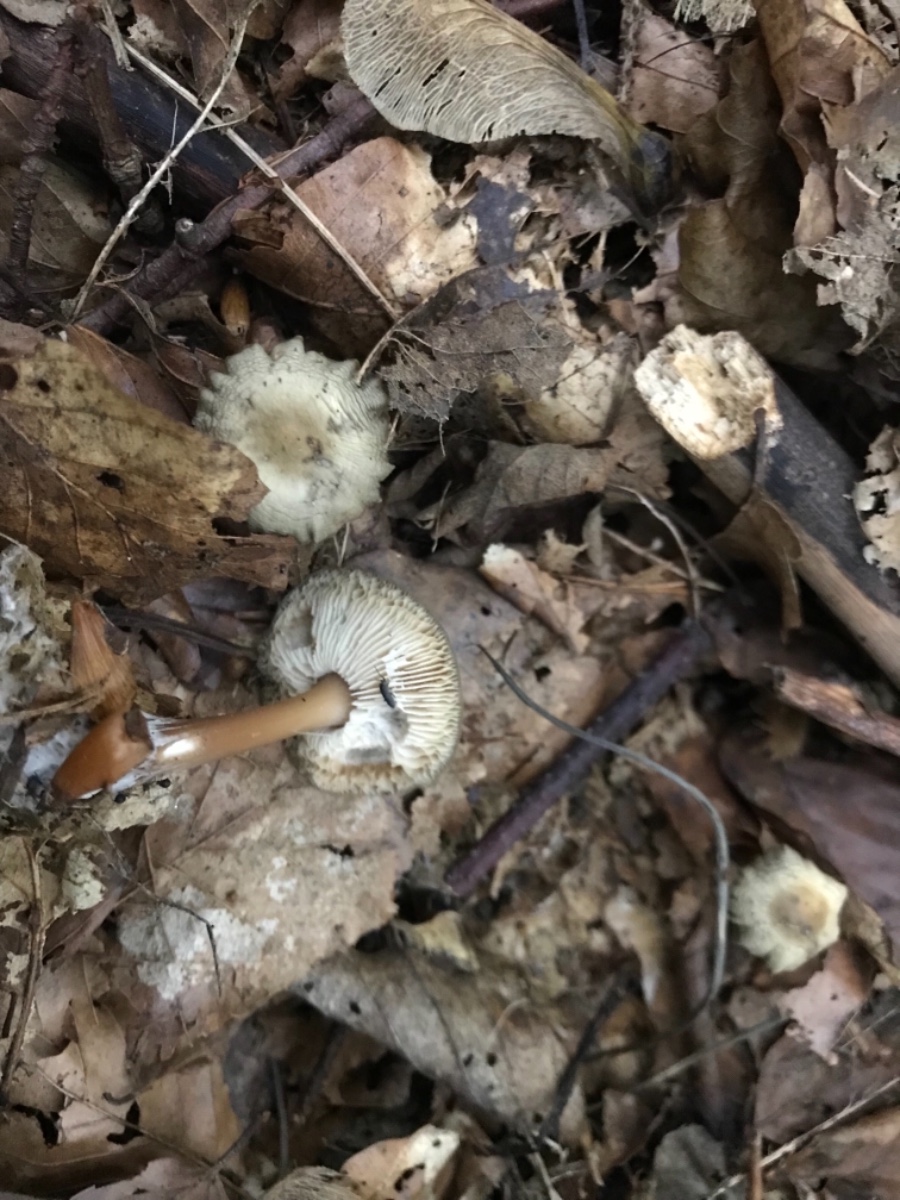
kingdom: Fungi
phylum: Basidiomycota
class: Agaricomycetes
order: Agaricales
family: Tricholomataceae
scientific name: Tricholomataceae
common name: ridderhatfamilien
